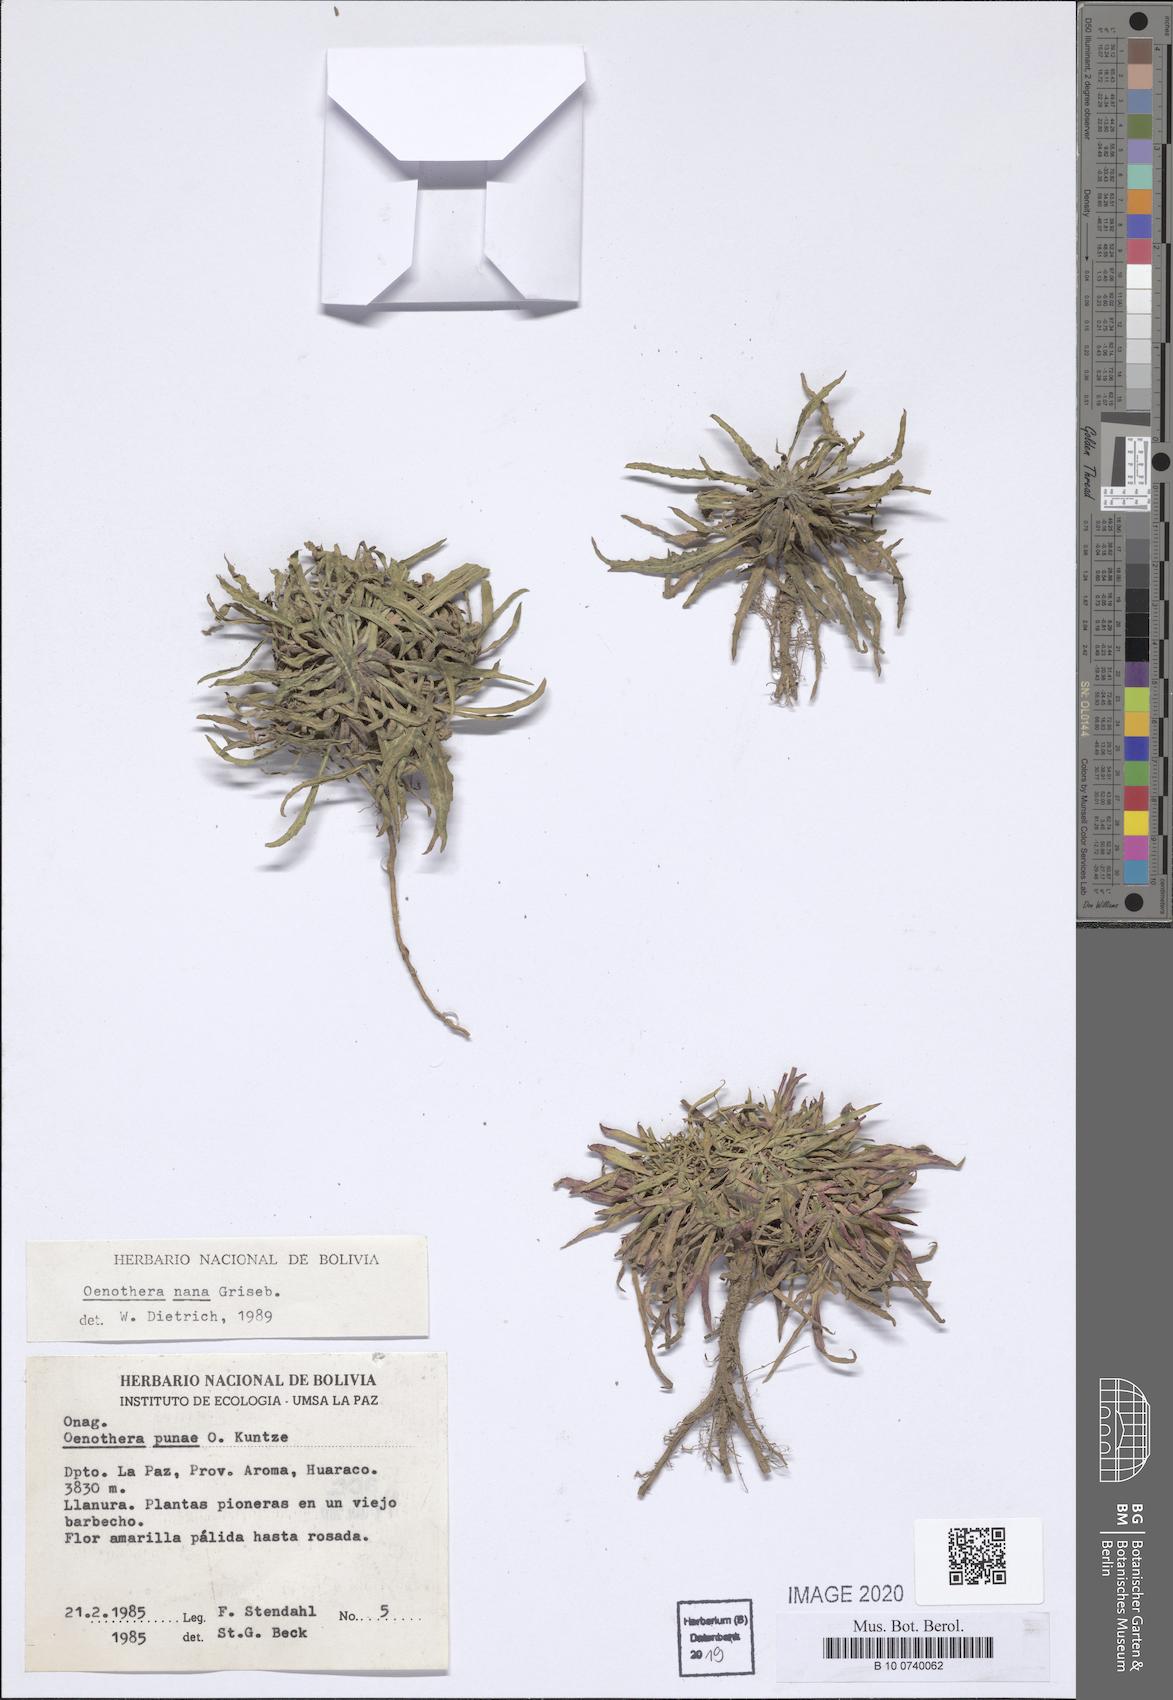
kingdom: Plantae
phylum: Tracheophyta
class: Magnoliopsida
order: Myrtales
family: Onagraceae
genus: Oenothera
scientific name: Oenothera nana
